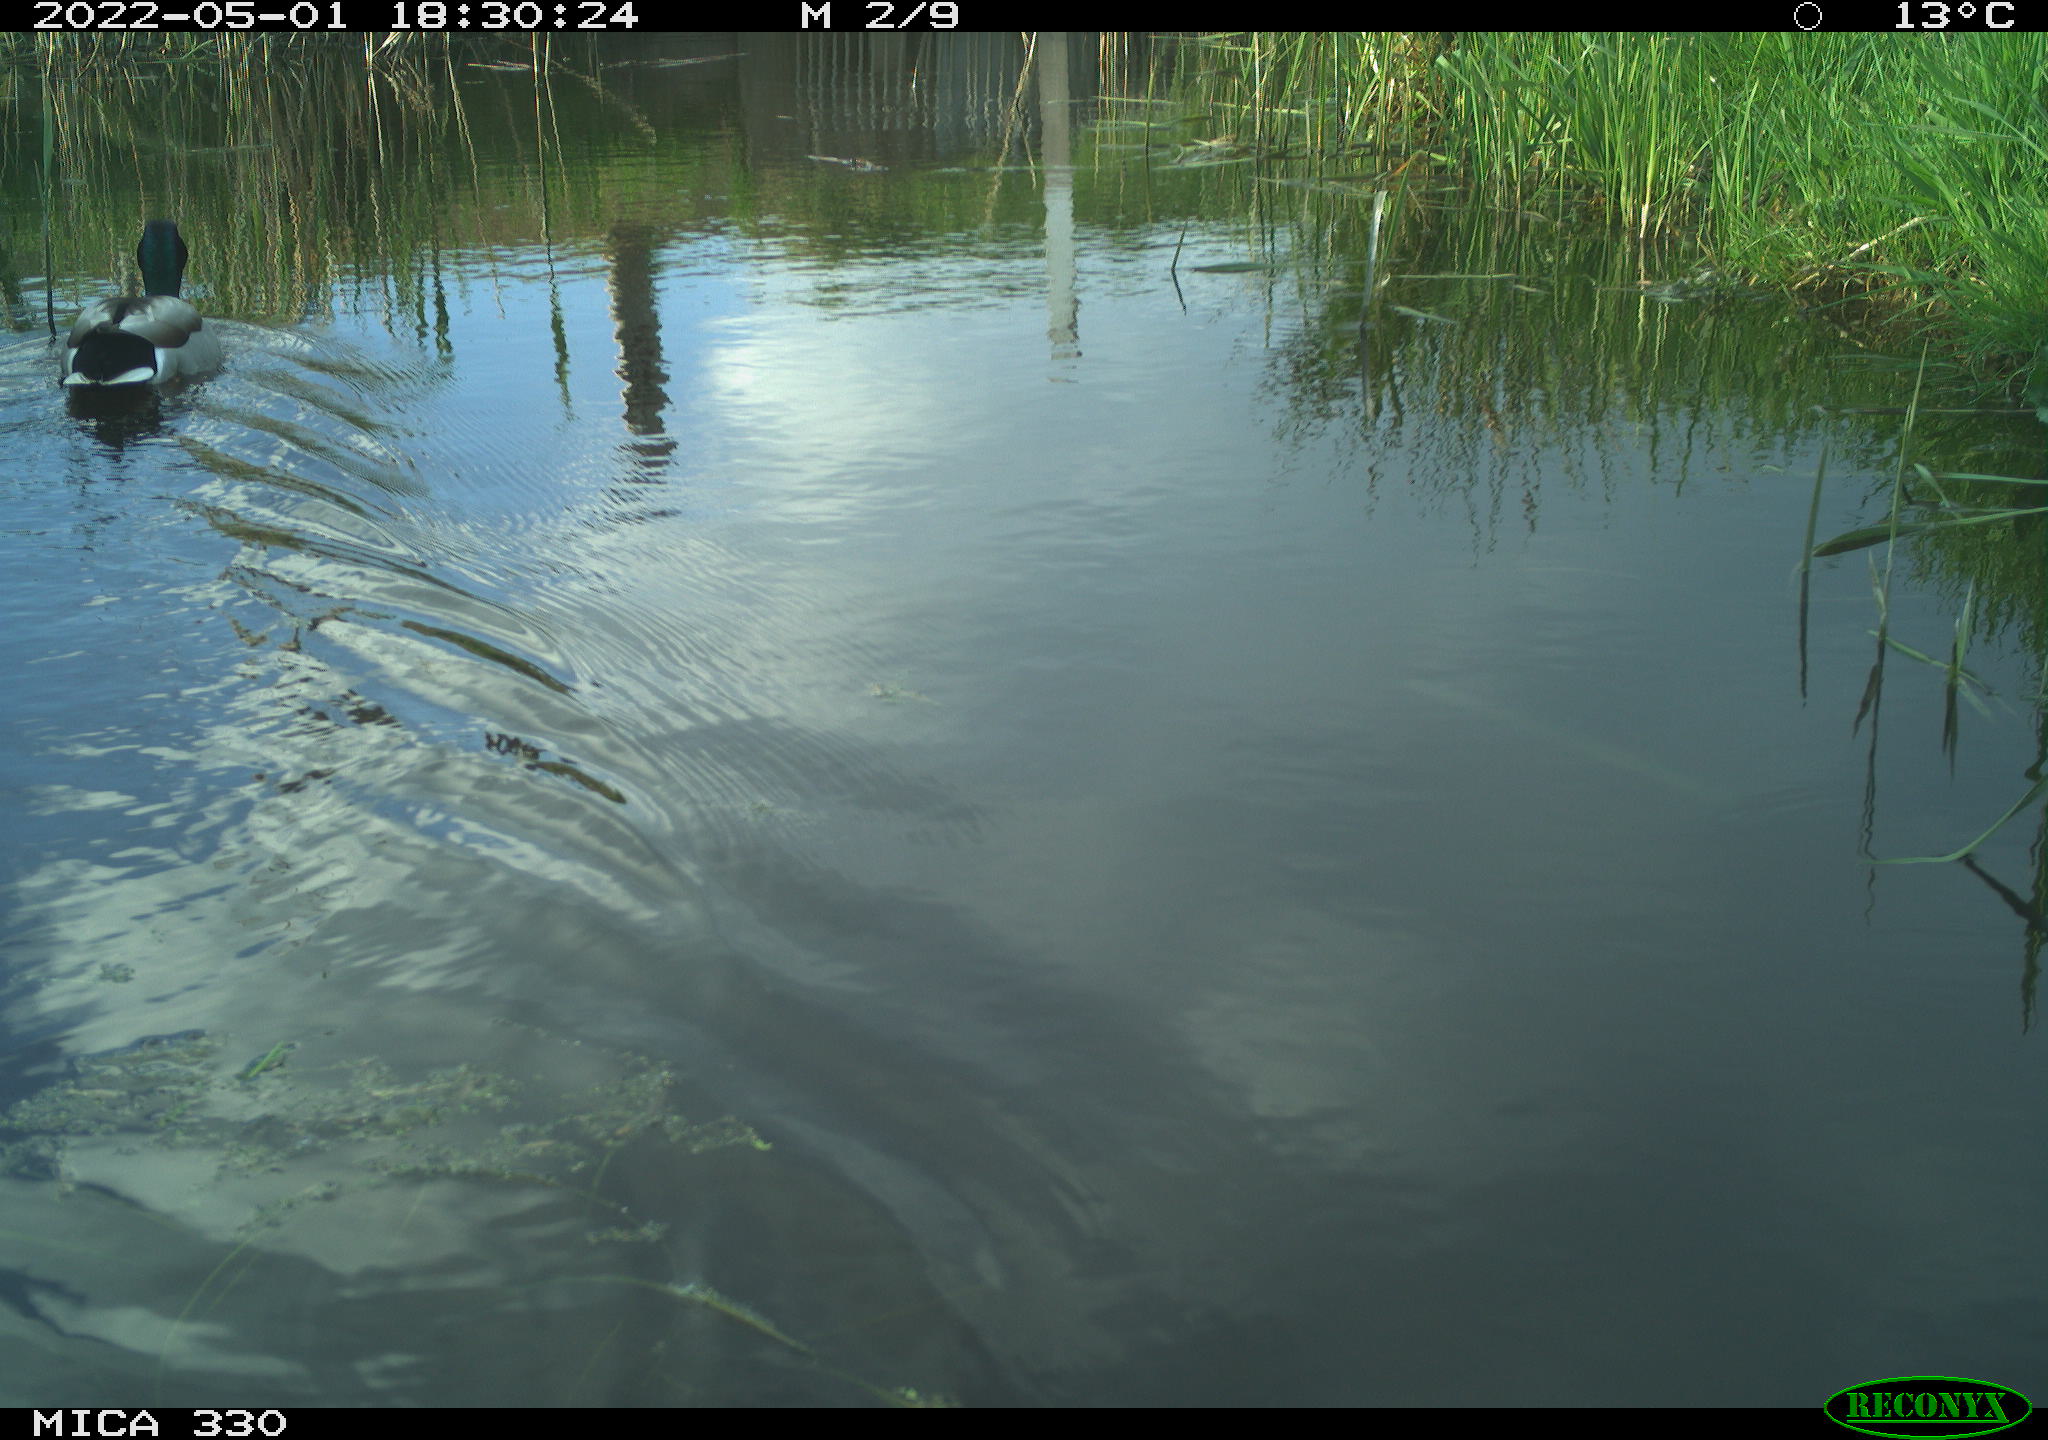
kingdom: Animalia
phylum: Chordata
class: Aves
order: Anseriformes
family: Anatidae
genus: Anas
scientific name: Anas platyrhynchos
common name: Mallard
